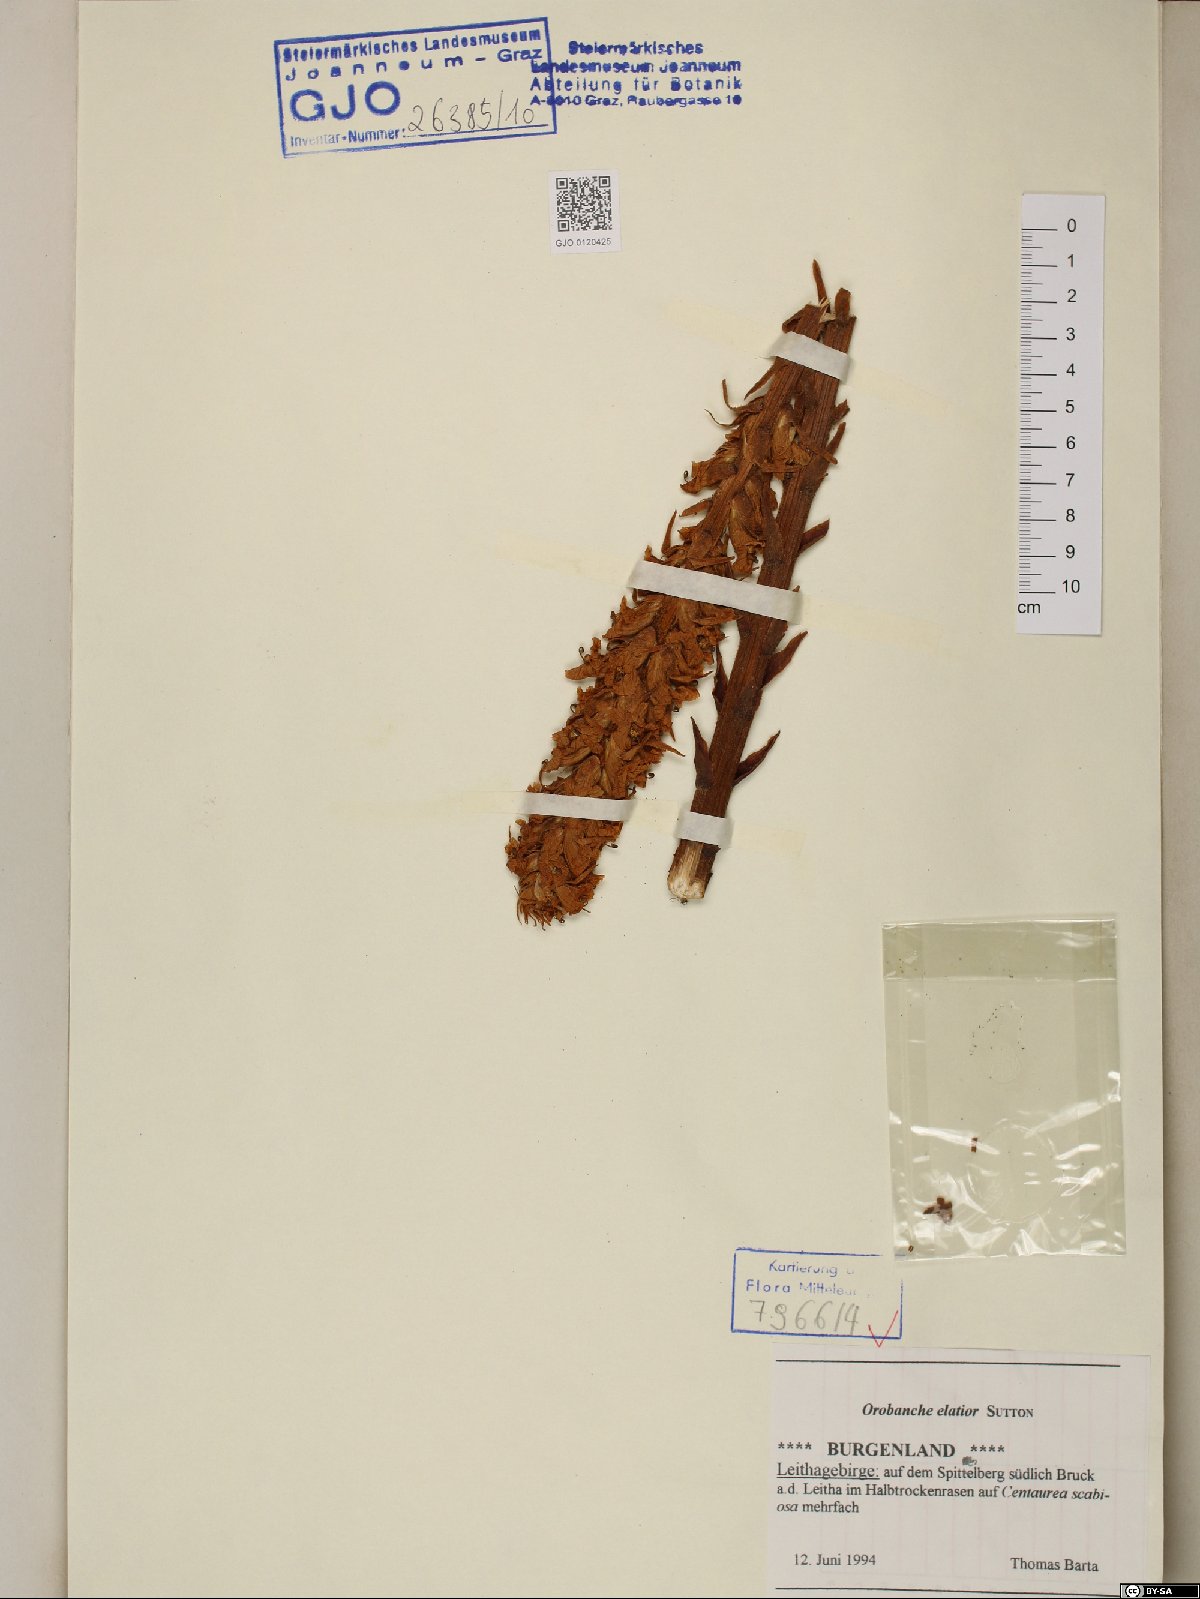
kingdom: Plantae
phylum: Tracheophyta
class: Magnoliopsida
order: Lamiales
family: Orobanchaceae
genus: Orobanche
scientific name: Orobanche elatior
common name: Knapweed broomrape
